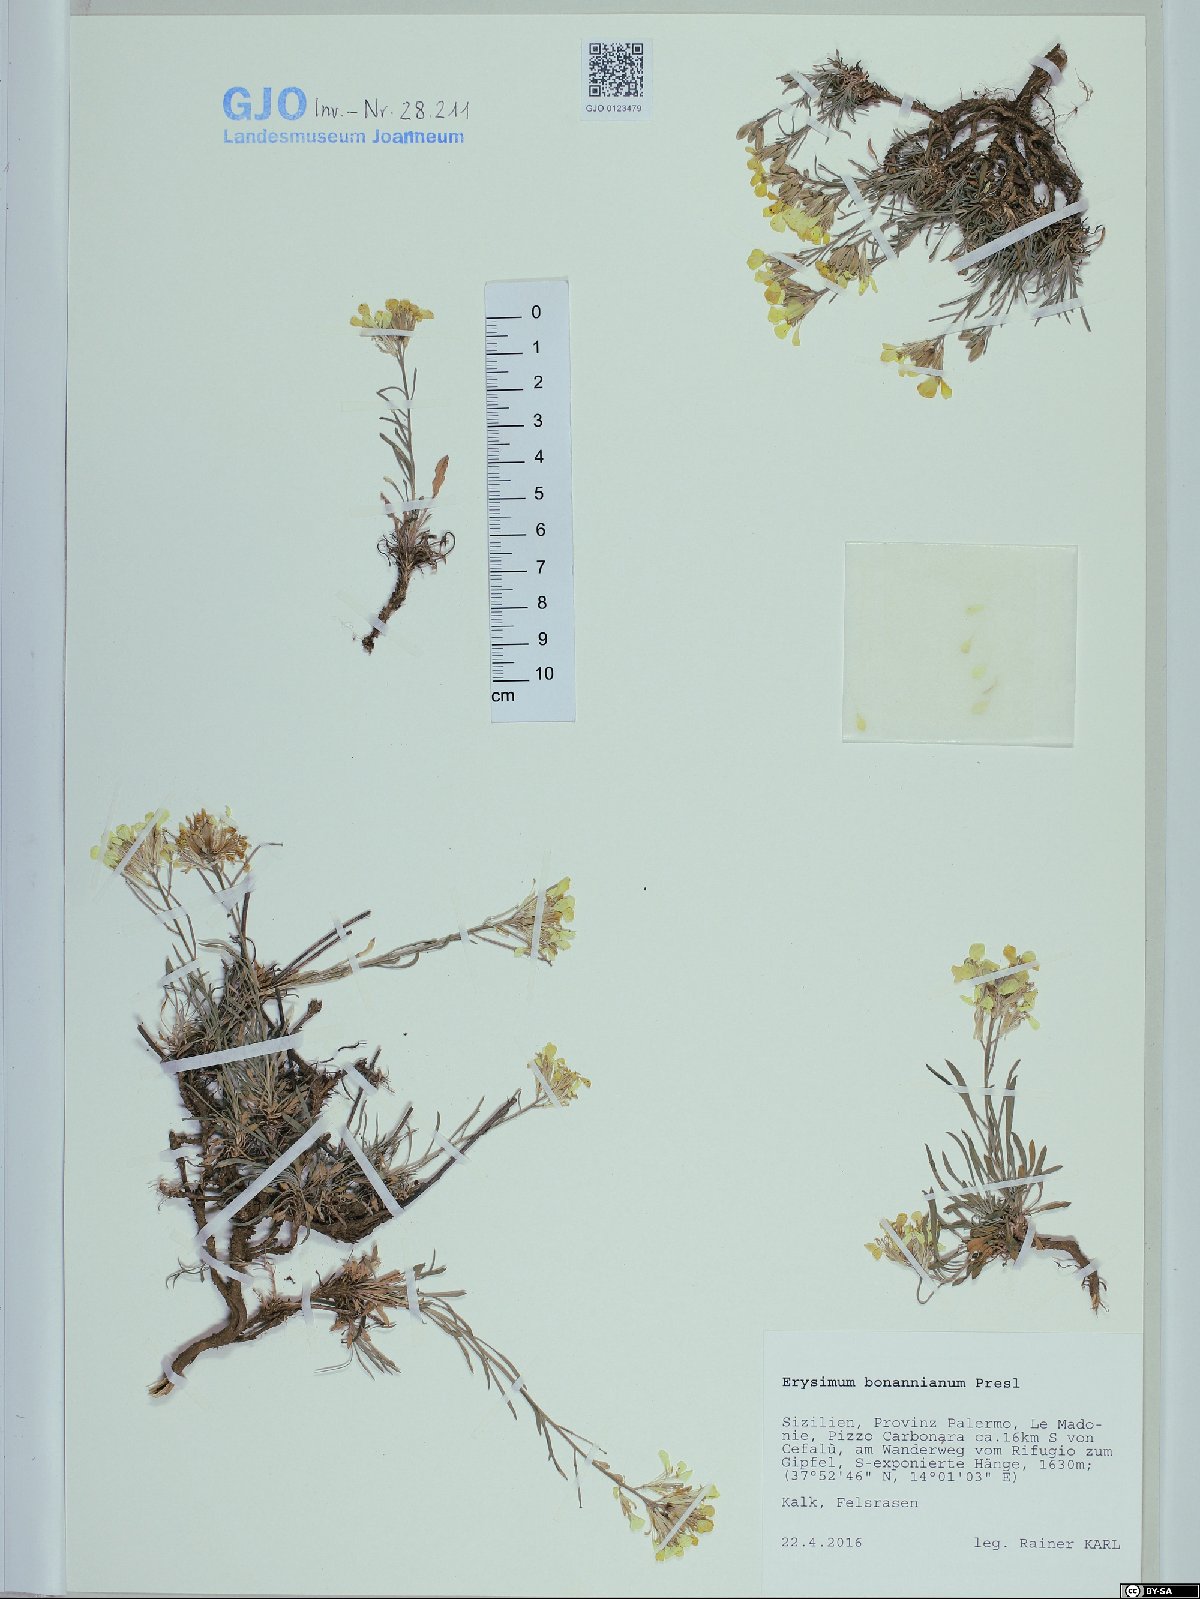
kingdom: Plantae
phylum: Tracheophyta
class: Magnoliopsida
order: Brassicales
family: Brassicaceae
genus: Erysimum
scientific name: Erysimum bonannianum
